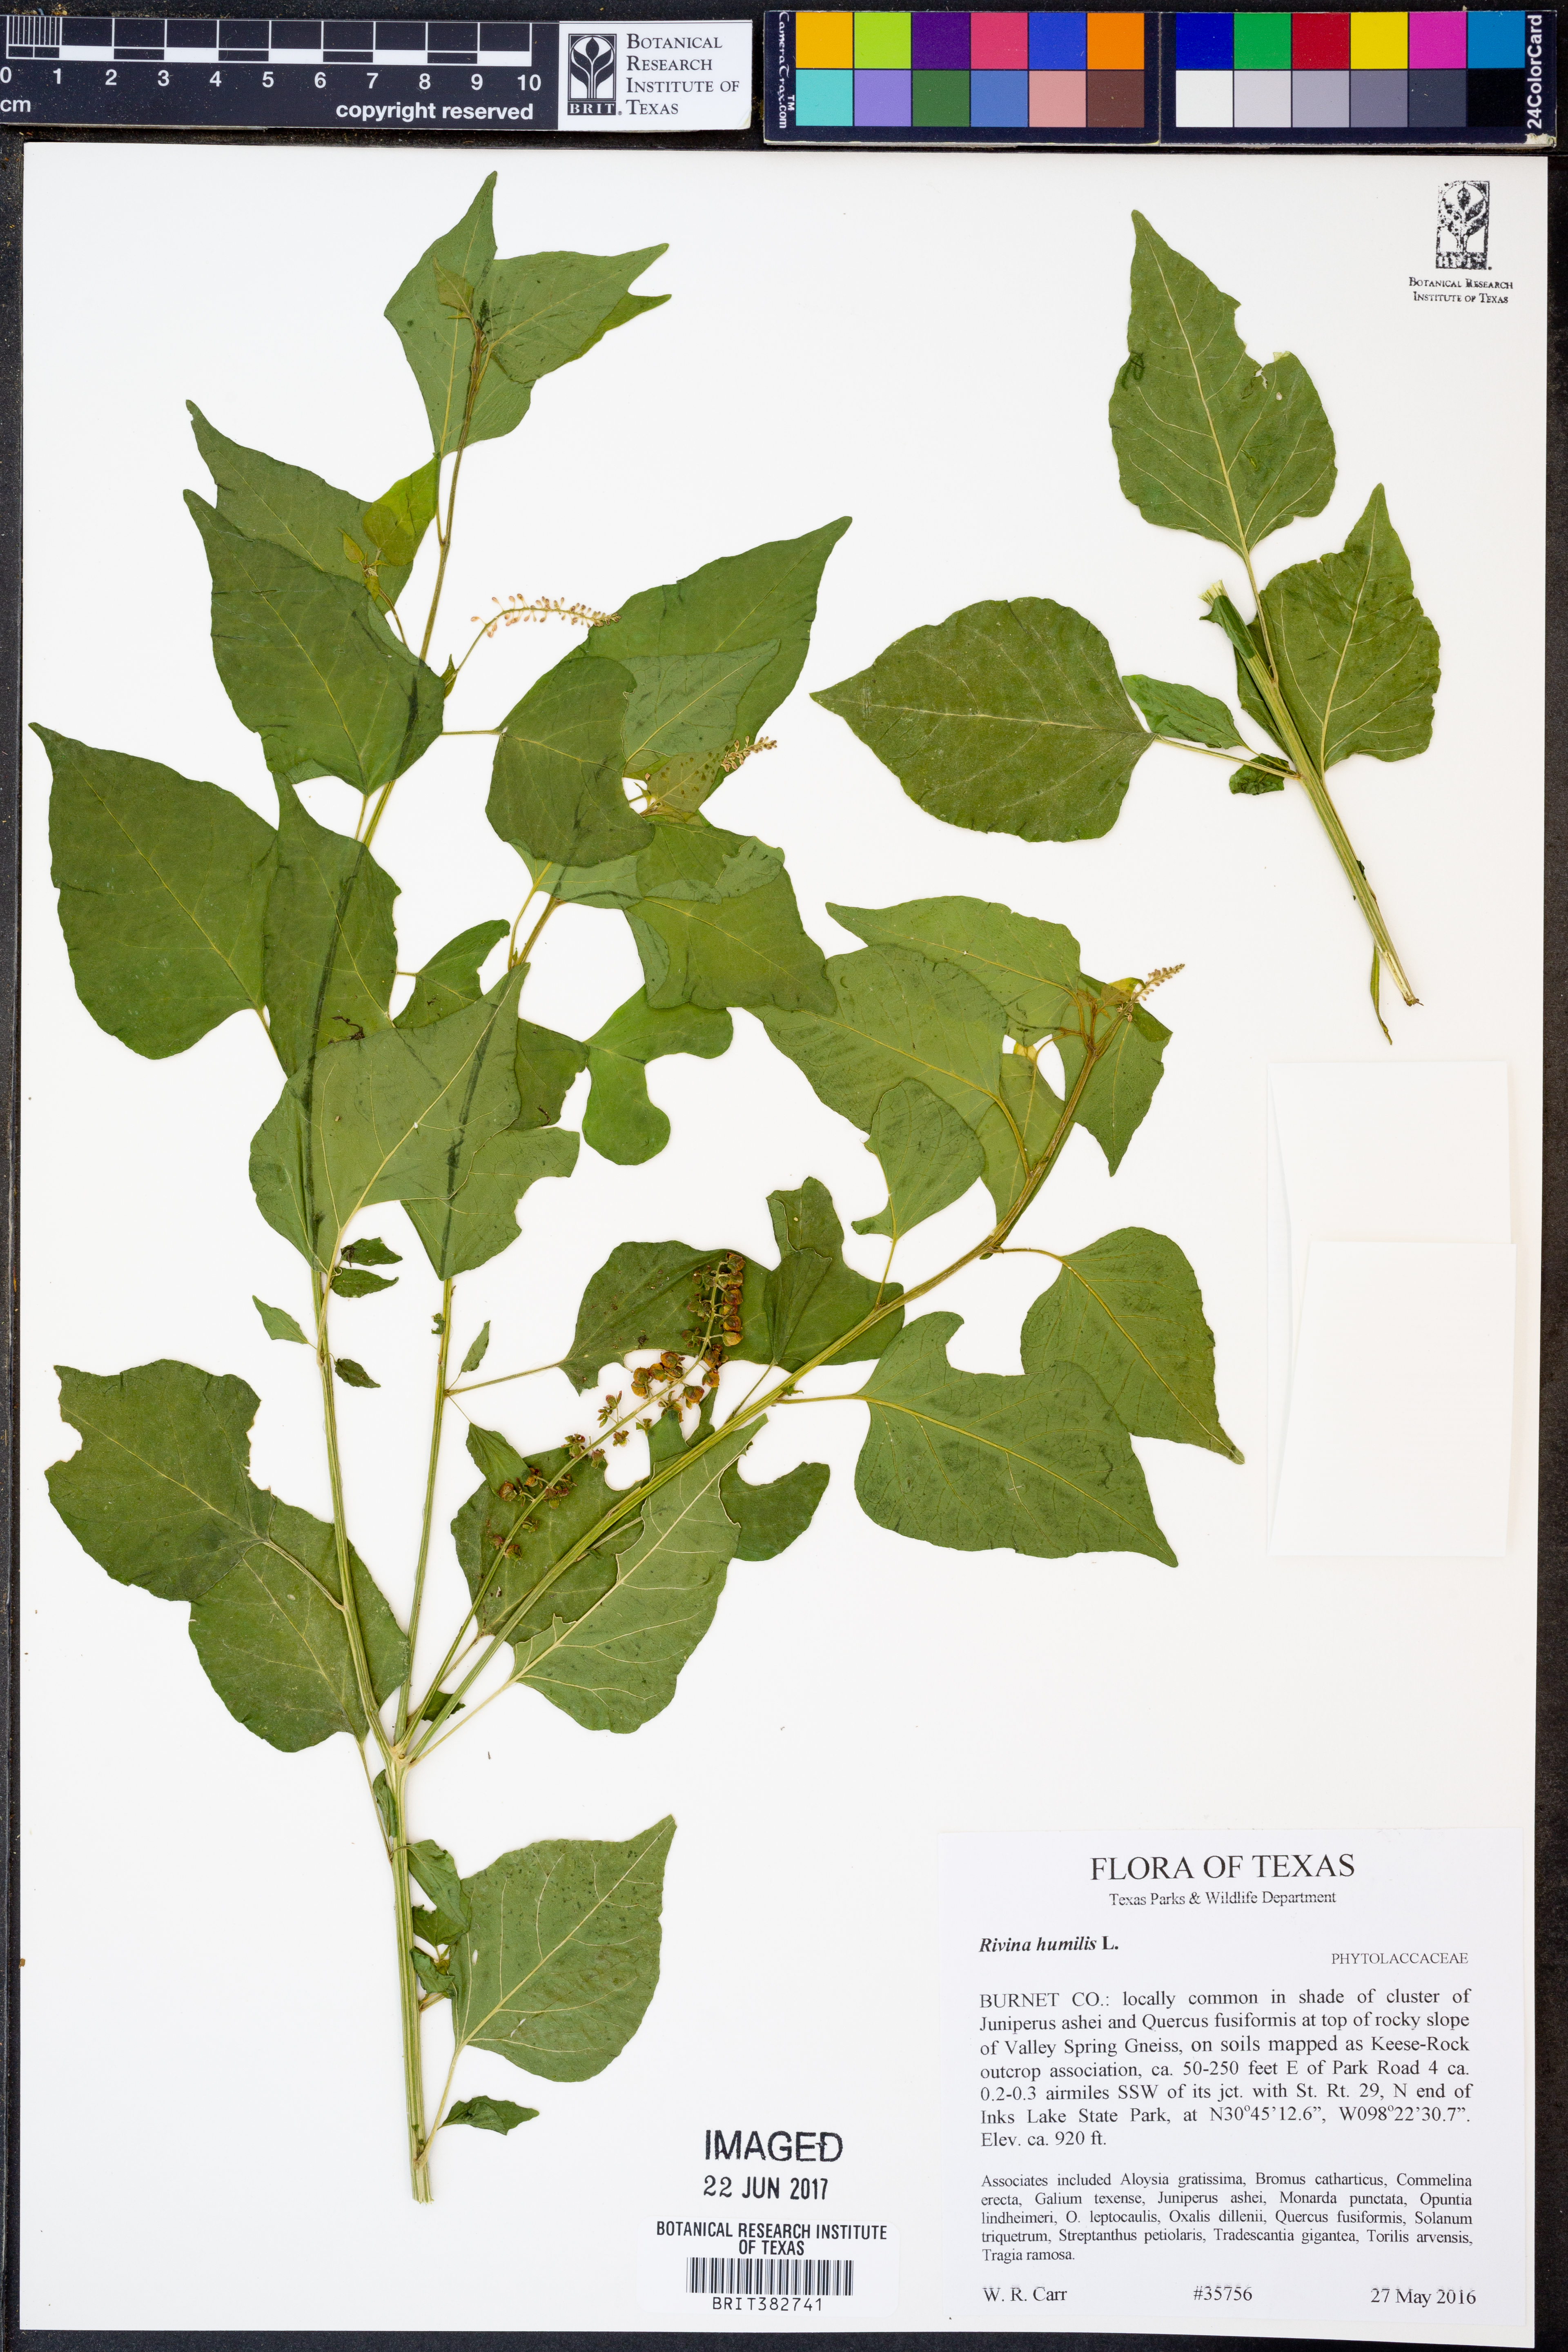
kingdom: Plantae
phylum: Tracheophyta
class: Magnoliopsida
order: Caryophyllales
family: Phytolaccaceae
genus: Rivina
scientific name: Rivina humilis
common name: Rougeplant
